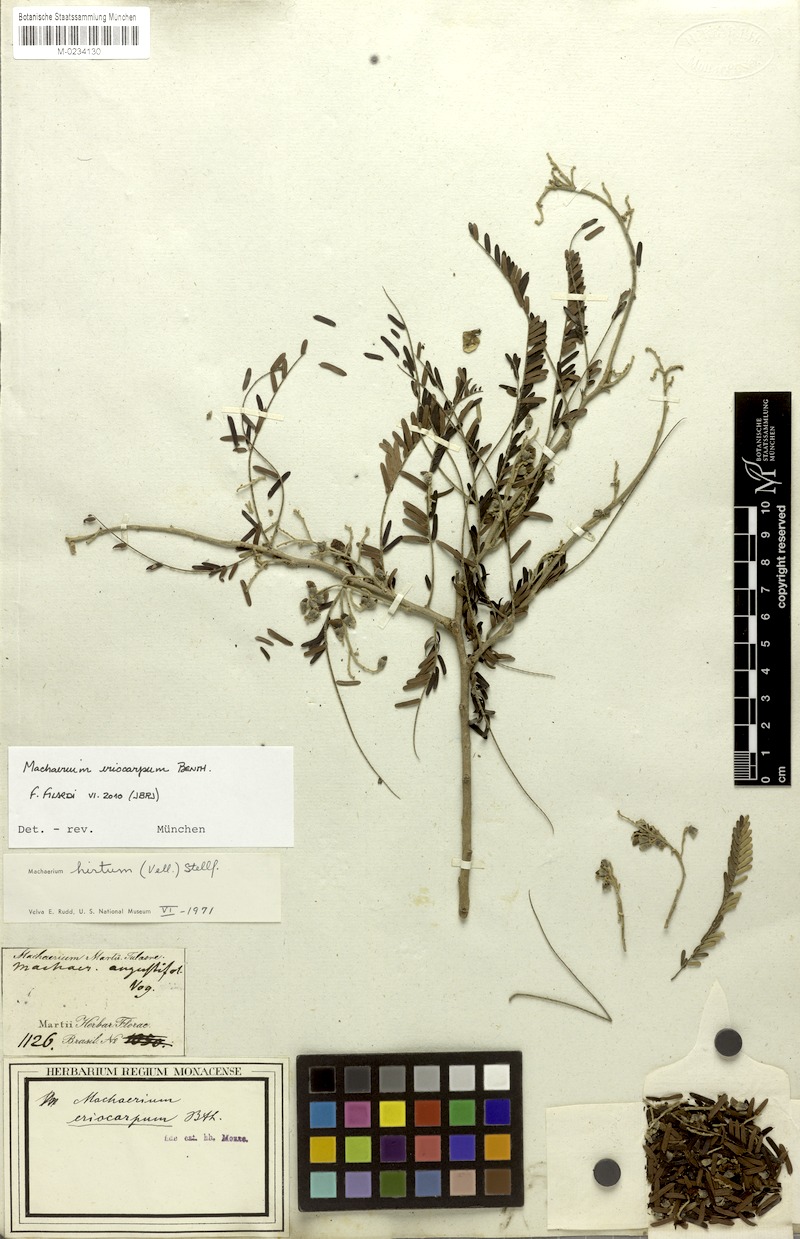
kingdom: Plantae
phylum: Tracheophyta
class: Magnoliopsida
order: Fabales
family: Fabaceae
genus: Machaerium
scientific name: Machaerium eriocarpum
